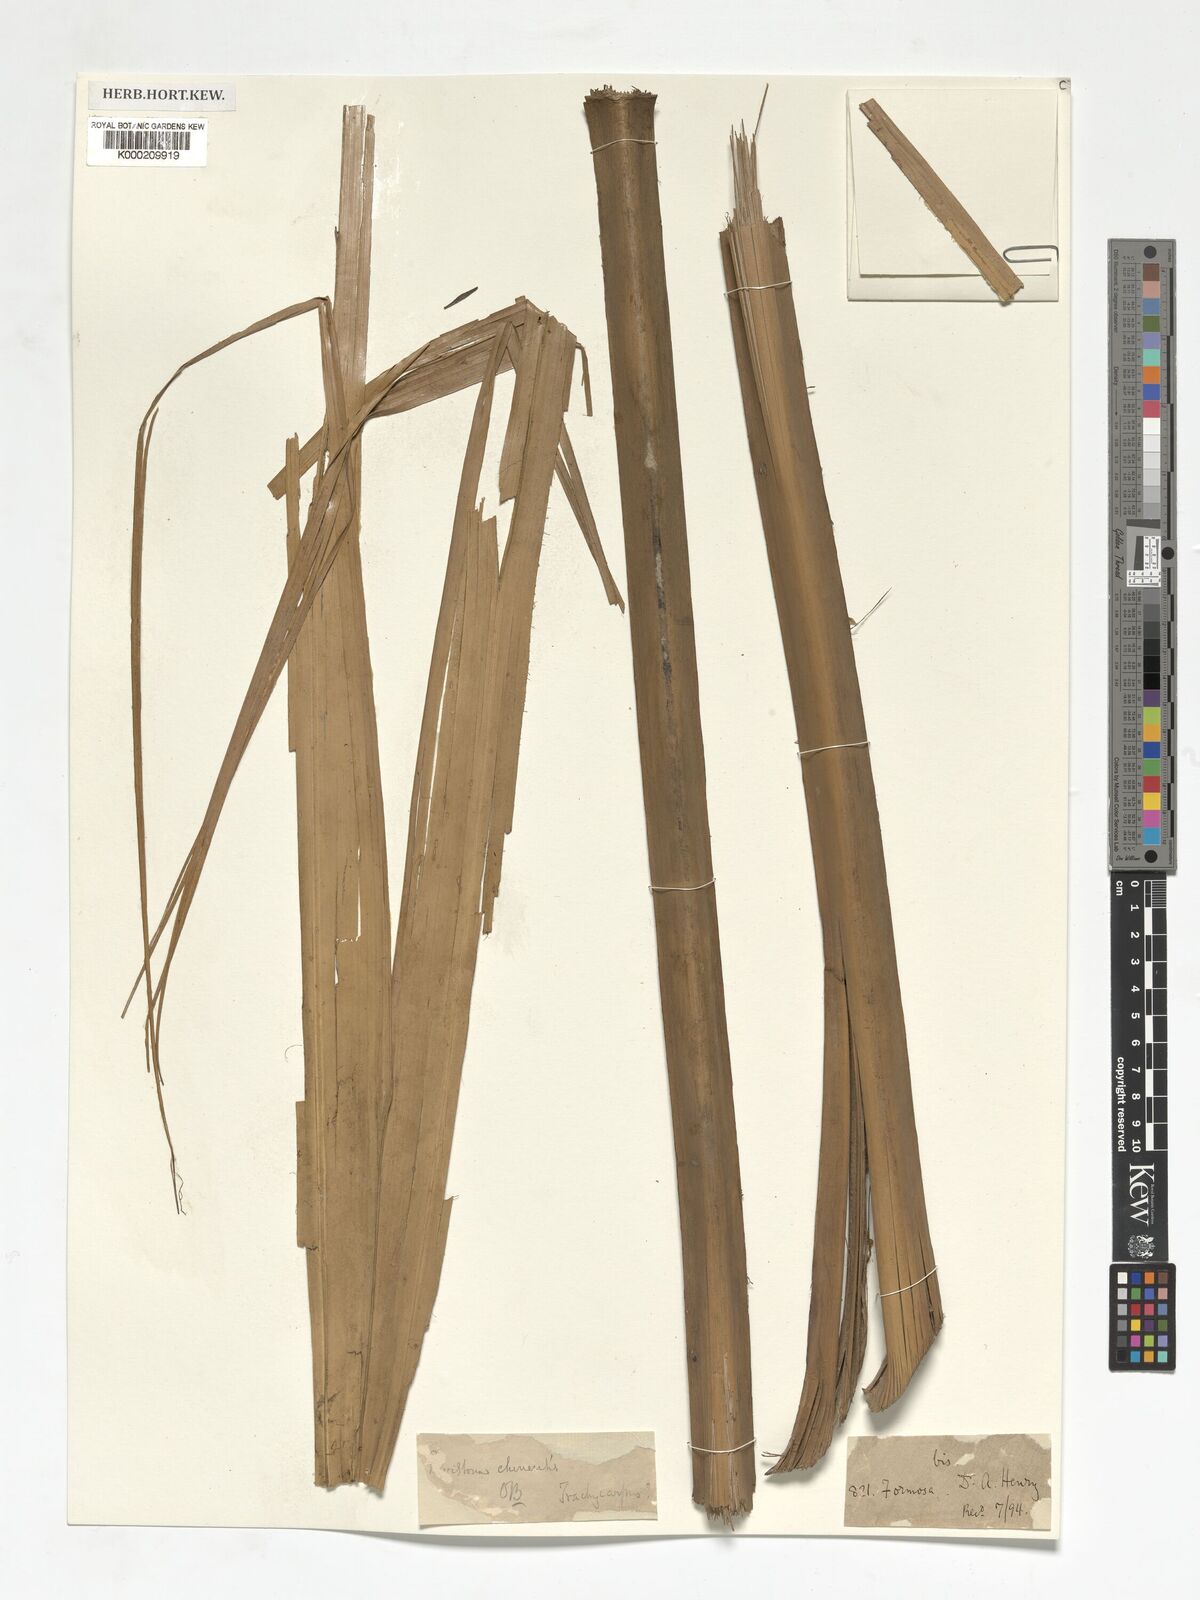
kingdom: Plantae
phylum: Tracheophyta
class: Liliopsida
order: Arecales
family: Arecaceae
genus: Livistona
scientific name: Livistona chinensis
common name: Fountain palm
